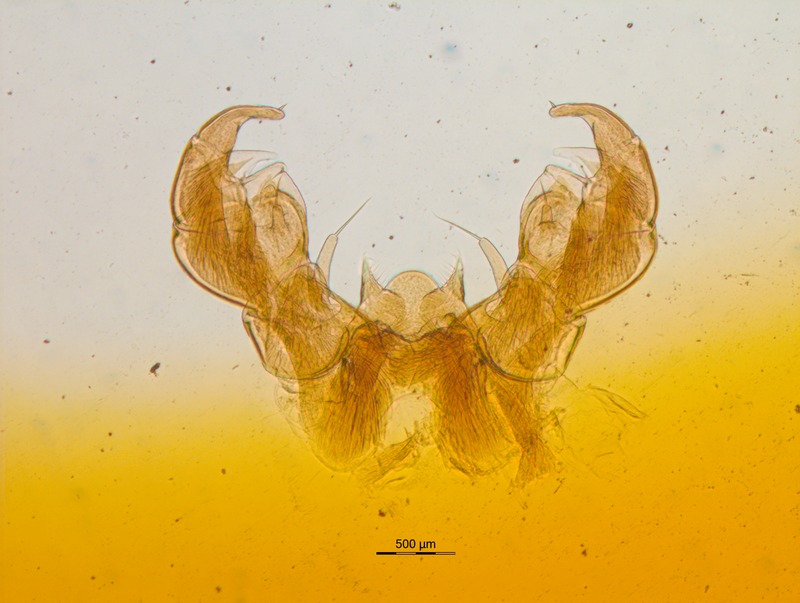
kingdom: Animalia
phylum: Arthropoda
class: Diplopoda
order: Glomerida
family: Glomeridae
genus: Glomeris
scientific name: Glomeris ornata
